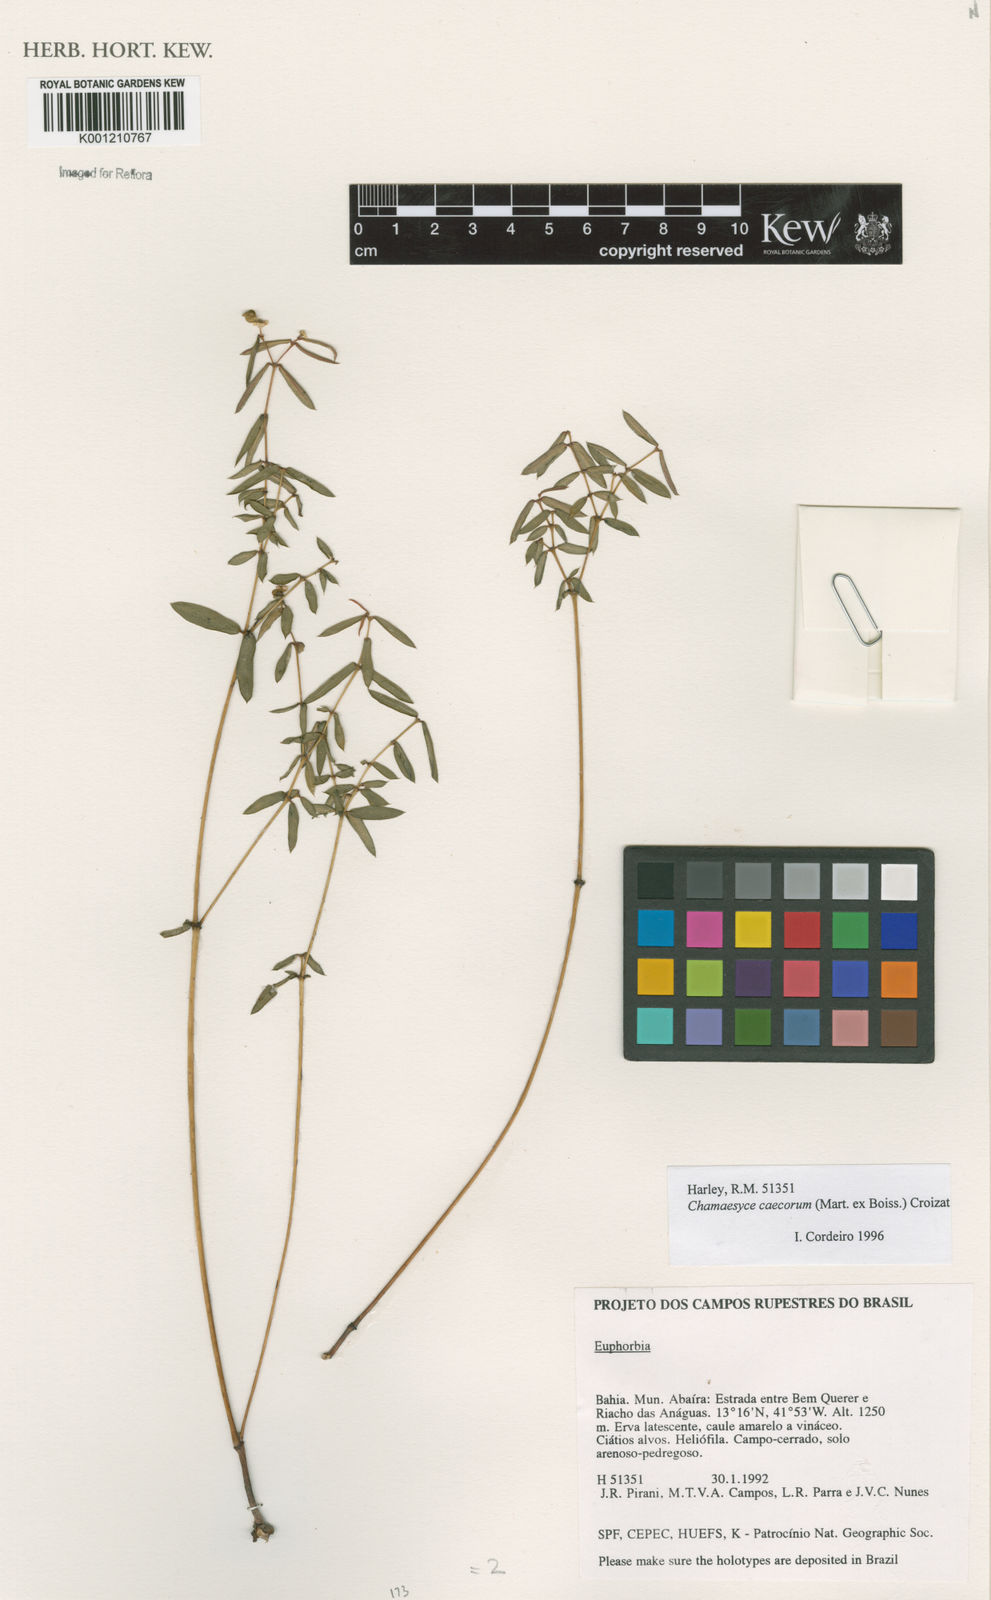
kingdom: Plantae
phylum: Tracheophyta
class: Magnoliopsida
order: Malpighiales
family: Euphorbiaceae
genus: Euphorbia
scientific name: Euphorbia potentilloides
